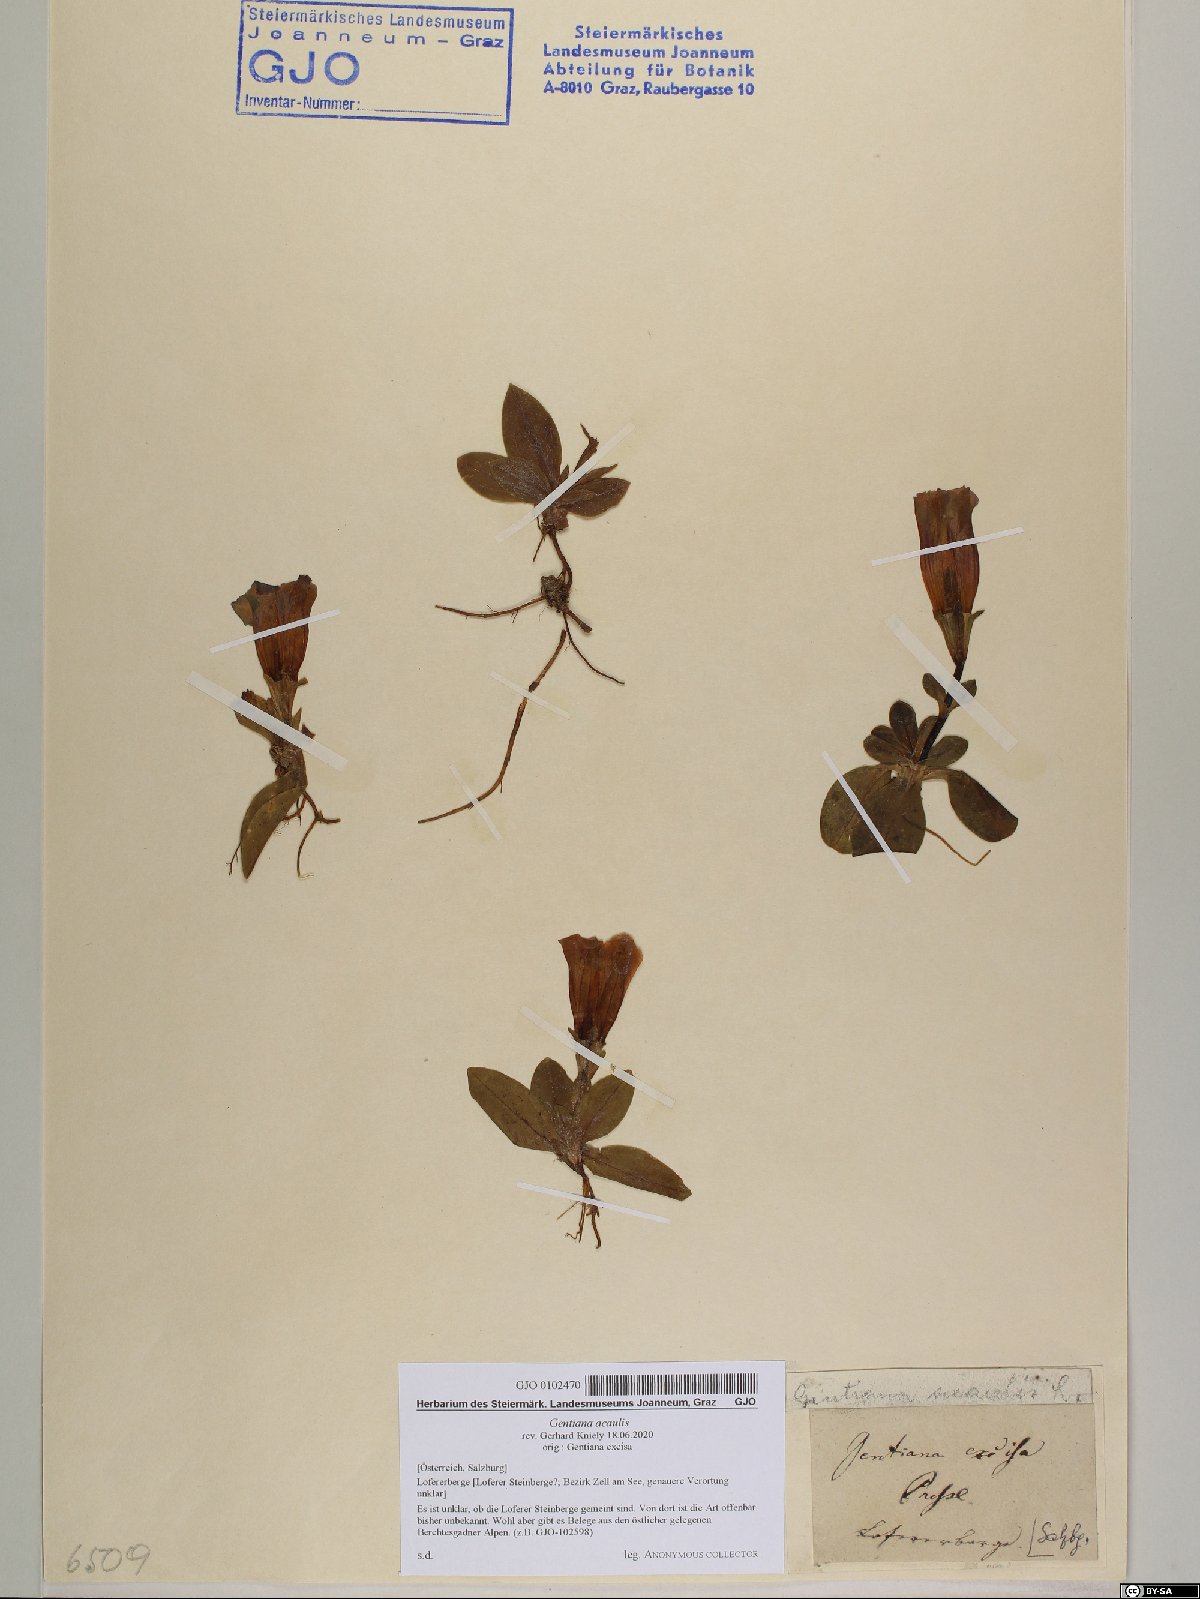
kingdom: Plantae
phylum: Tracheophyta
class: Magnoliopsida
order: Gentianales
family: Gentianaceae
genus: Gentiana
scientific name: Gentiana acaulis
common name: Trumpet gentian
